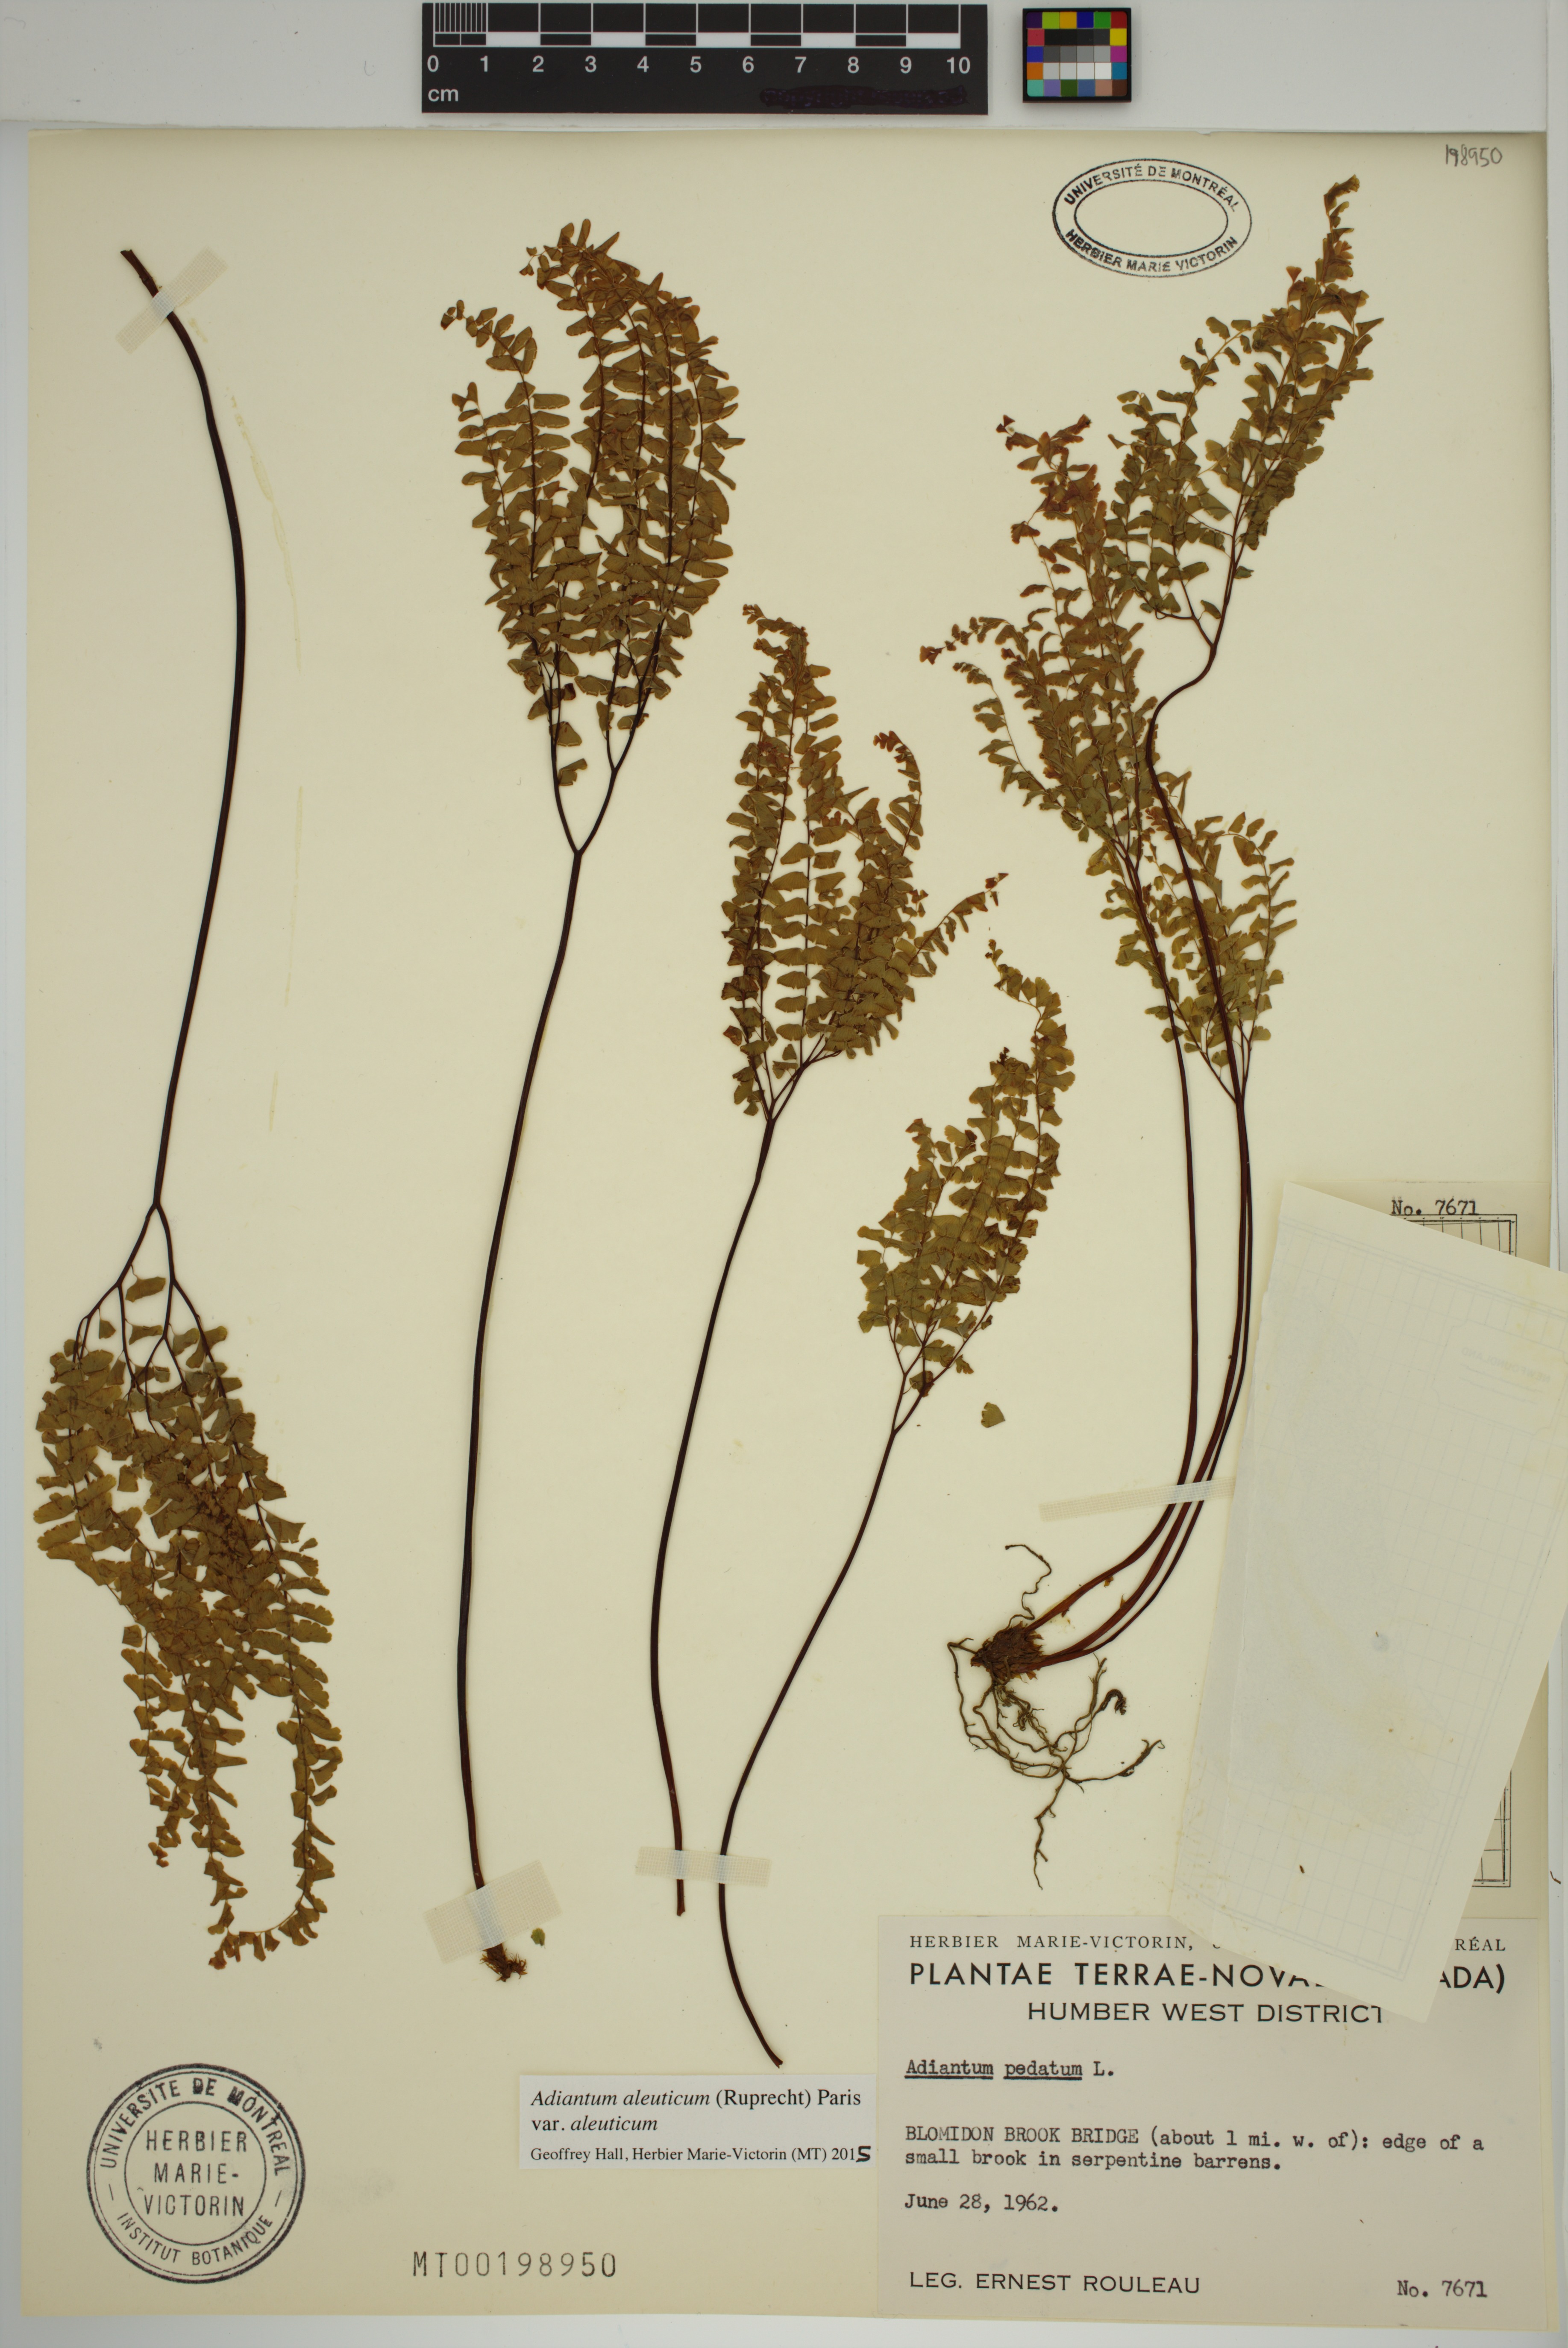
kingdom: Plantae
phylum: Tracheophyta
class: Polypodiopsida
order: Polypodiales
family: Pteridaceae
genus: Adiantum
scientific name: Adiantum aleuticum
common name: Aleutian maidenhair fern
